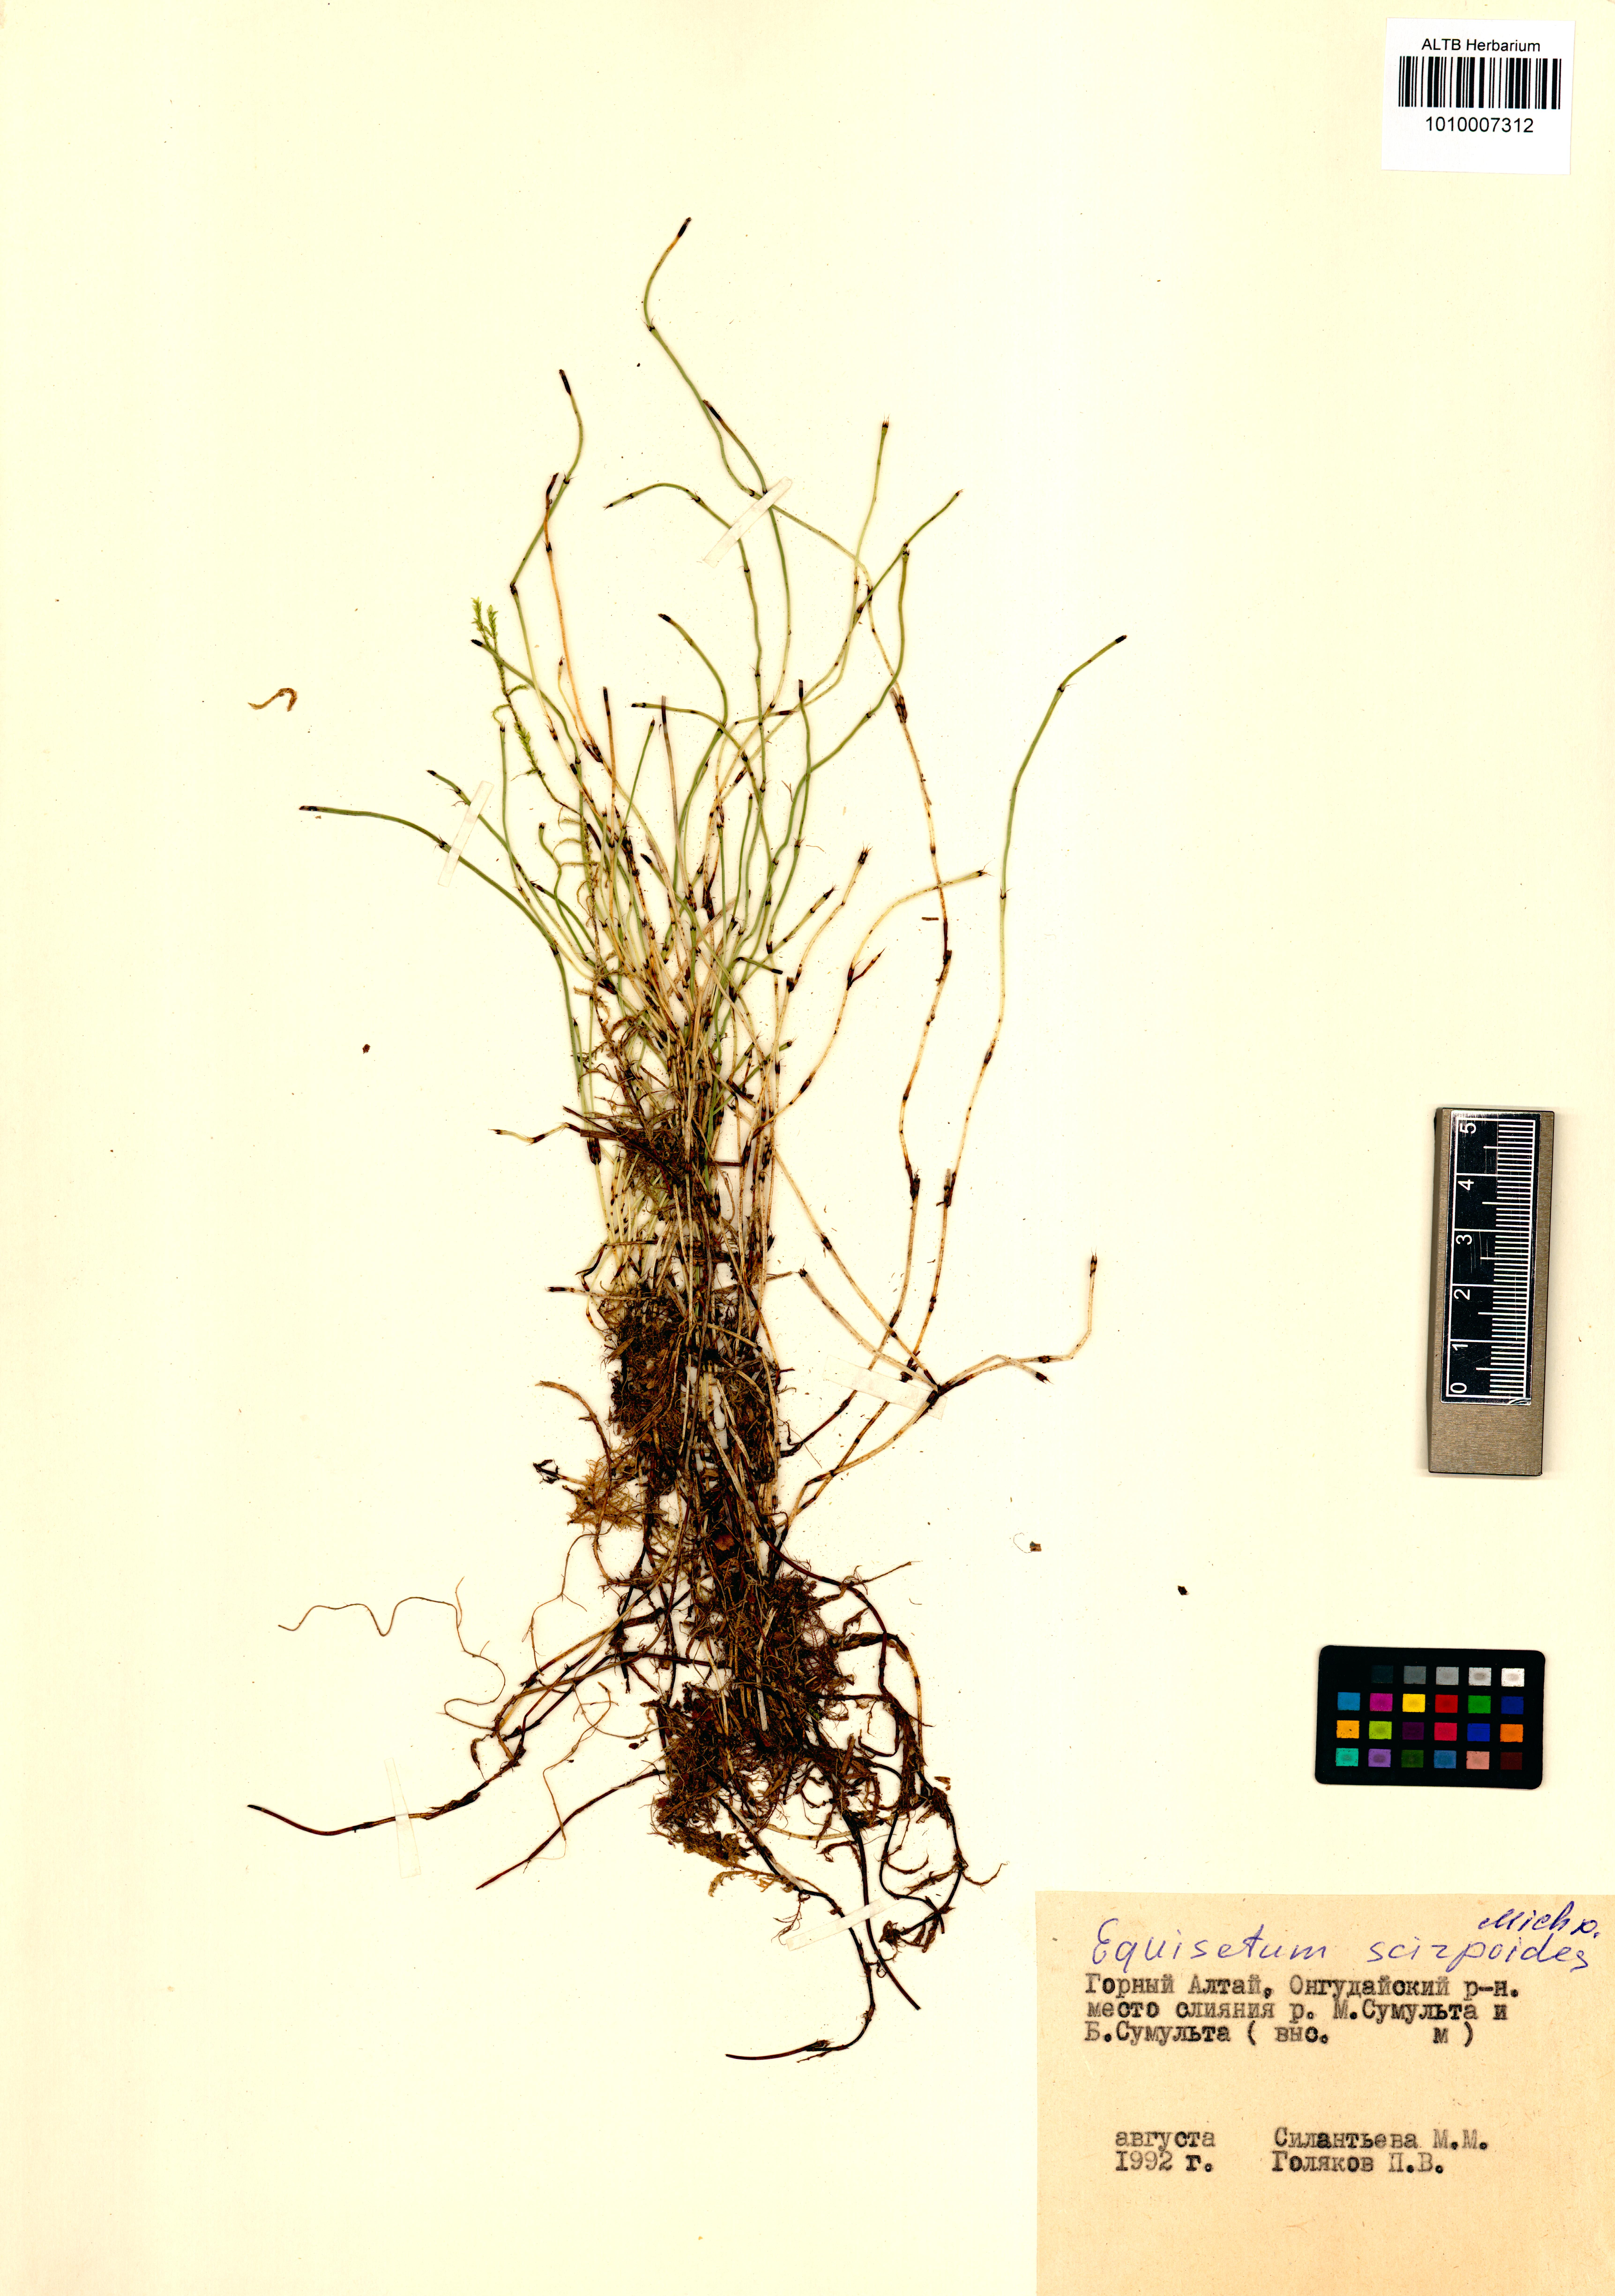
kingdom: Plantae
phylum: Tracheophyta
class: Polypodiopsida
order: Equisetales
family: Equisetaceae
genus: Equisetum
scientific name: Equisetum scirpoides
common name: Delicate horsetail
